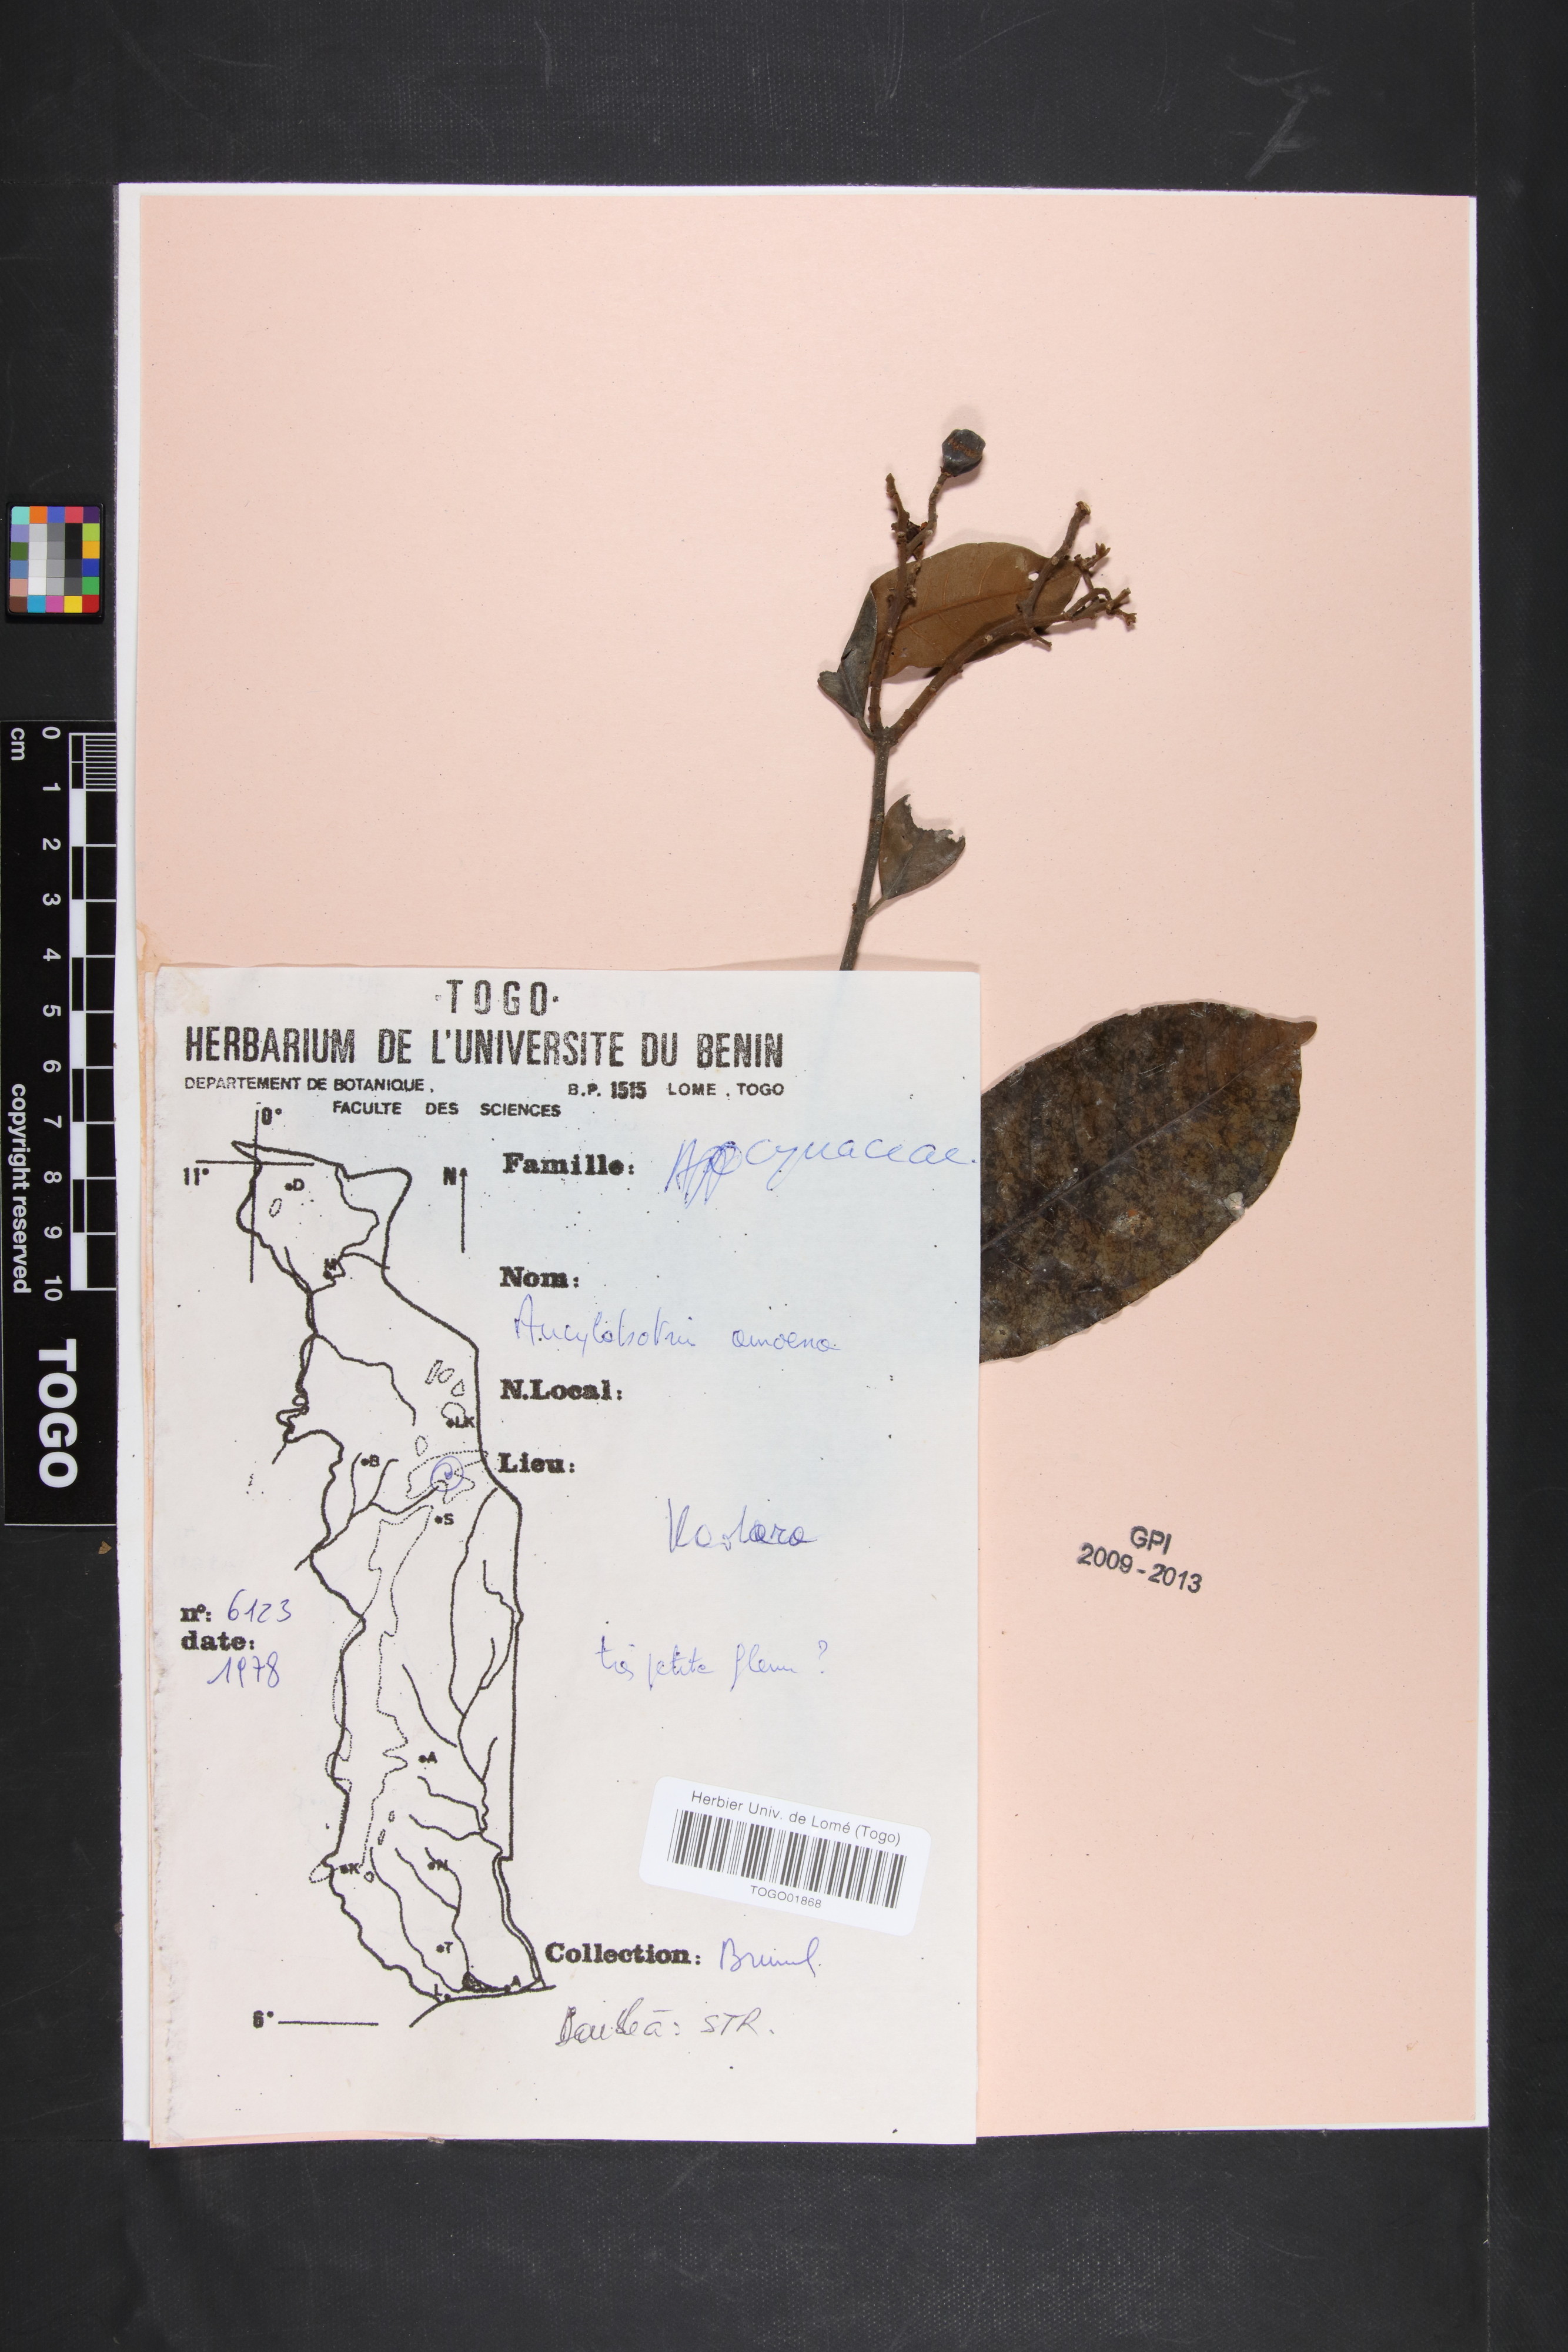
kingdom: Plantae
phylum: Tracheophyta
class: Magnoliopsida
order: Gentianales
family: Apocynaceae
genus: Ancylobothrys
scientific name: Ancylobothrys amoena
